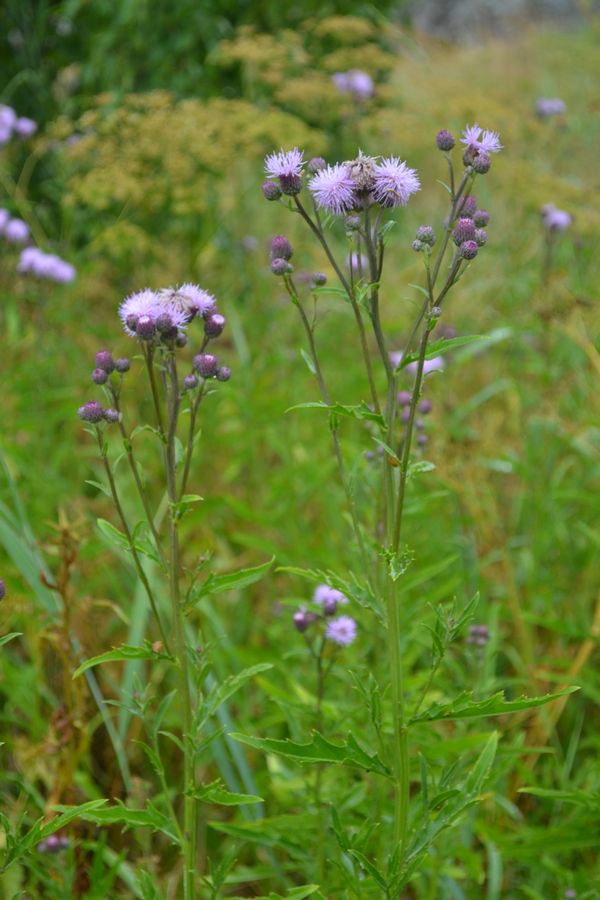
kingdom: Plantae
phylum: Tracheophyta
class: Magnoliopsida
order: Asterales
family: Asteraceae
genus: Cirsium
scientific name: Cirsium arvense
